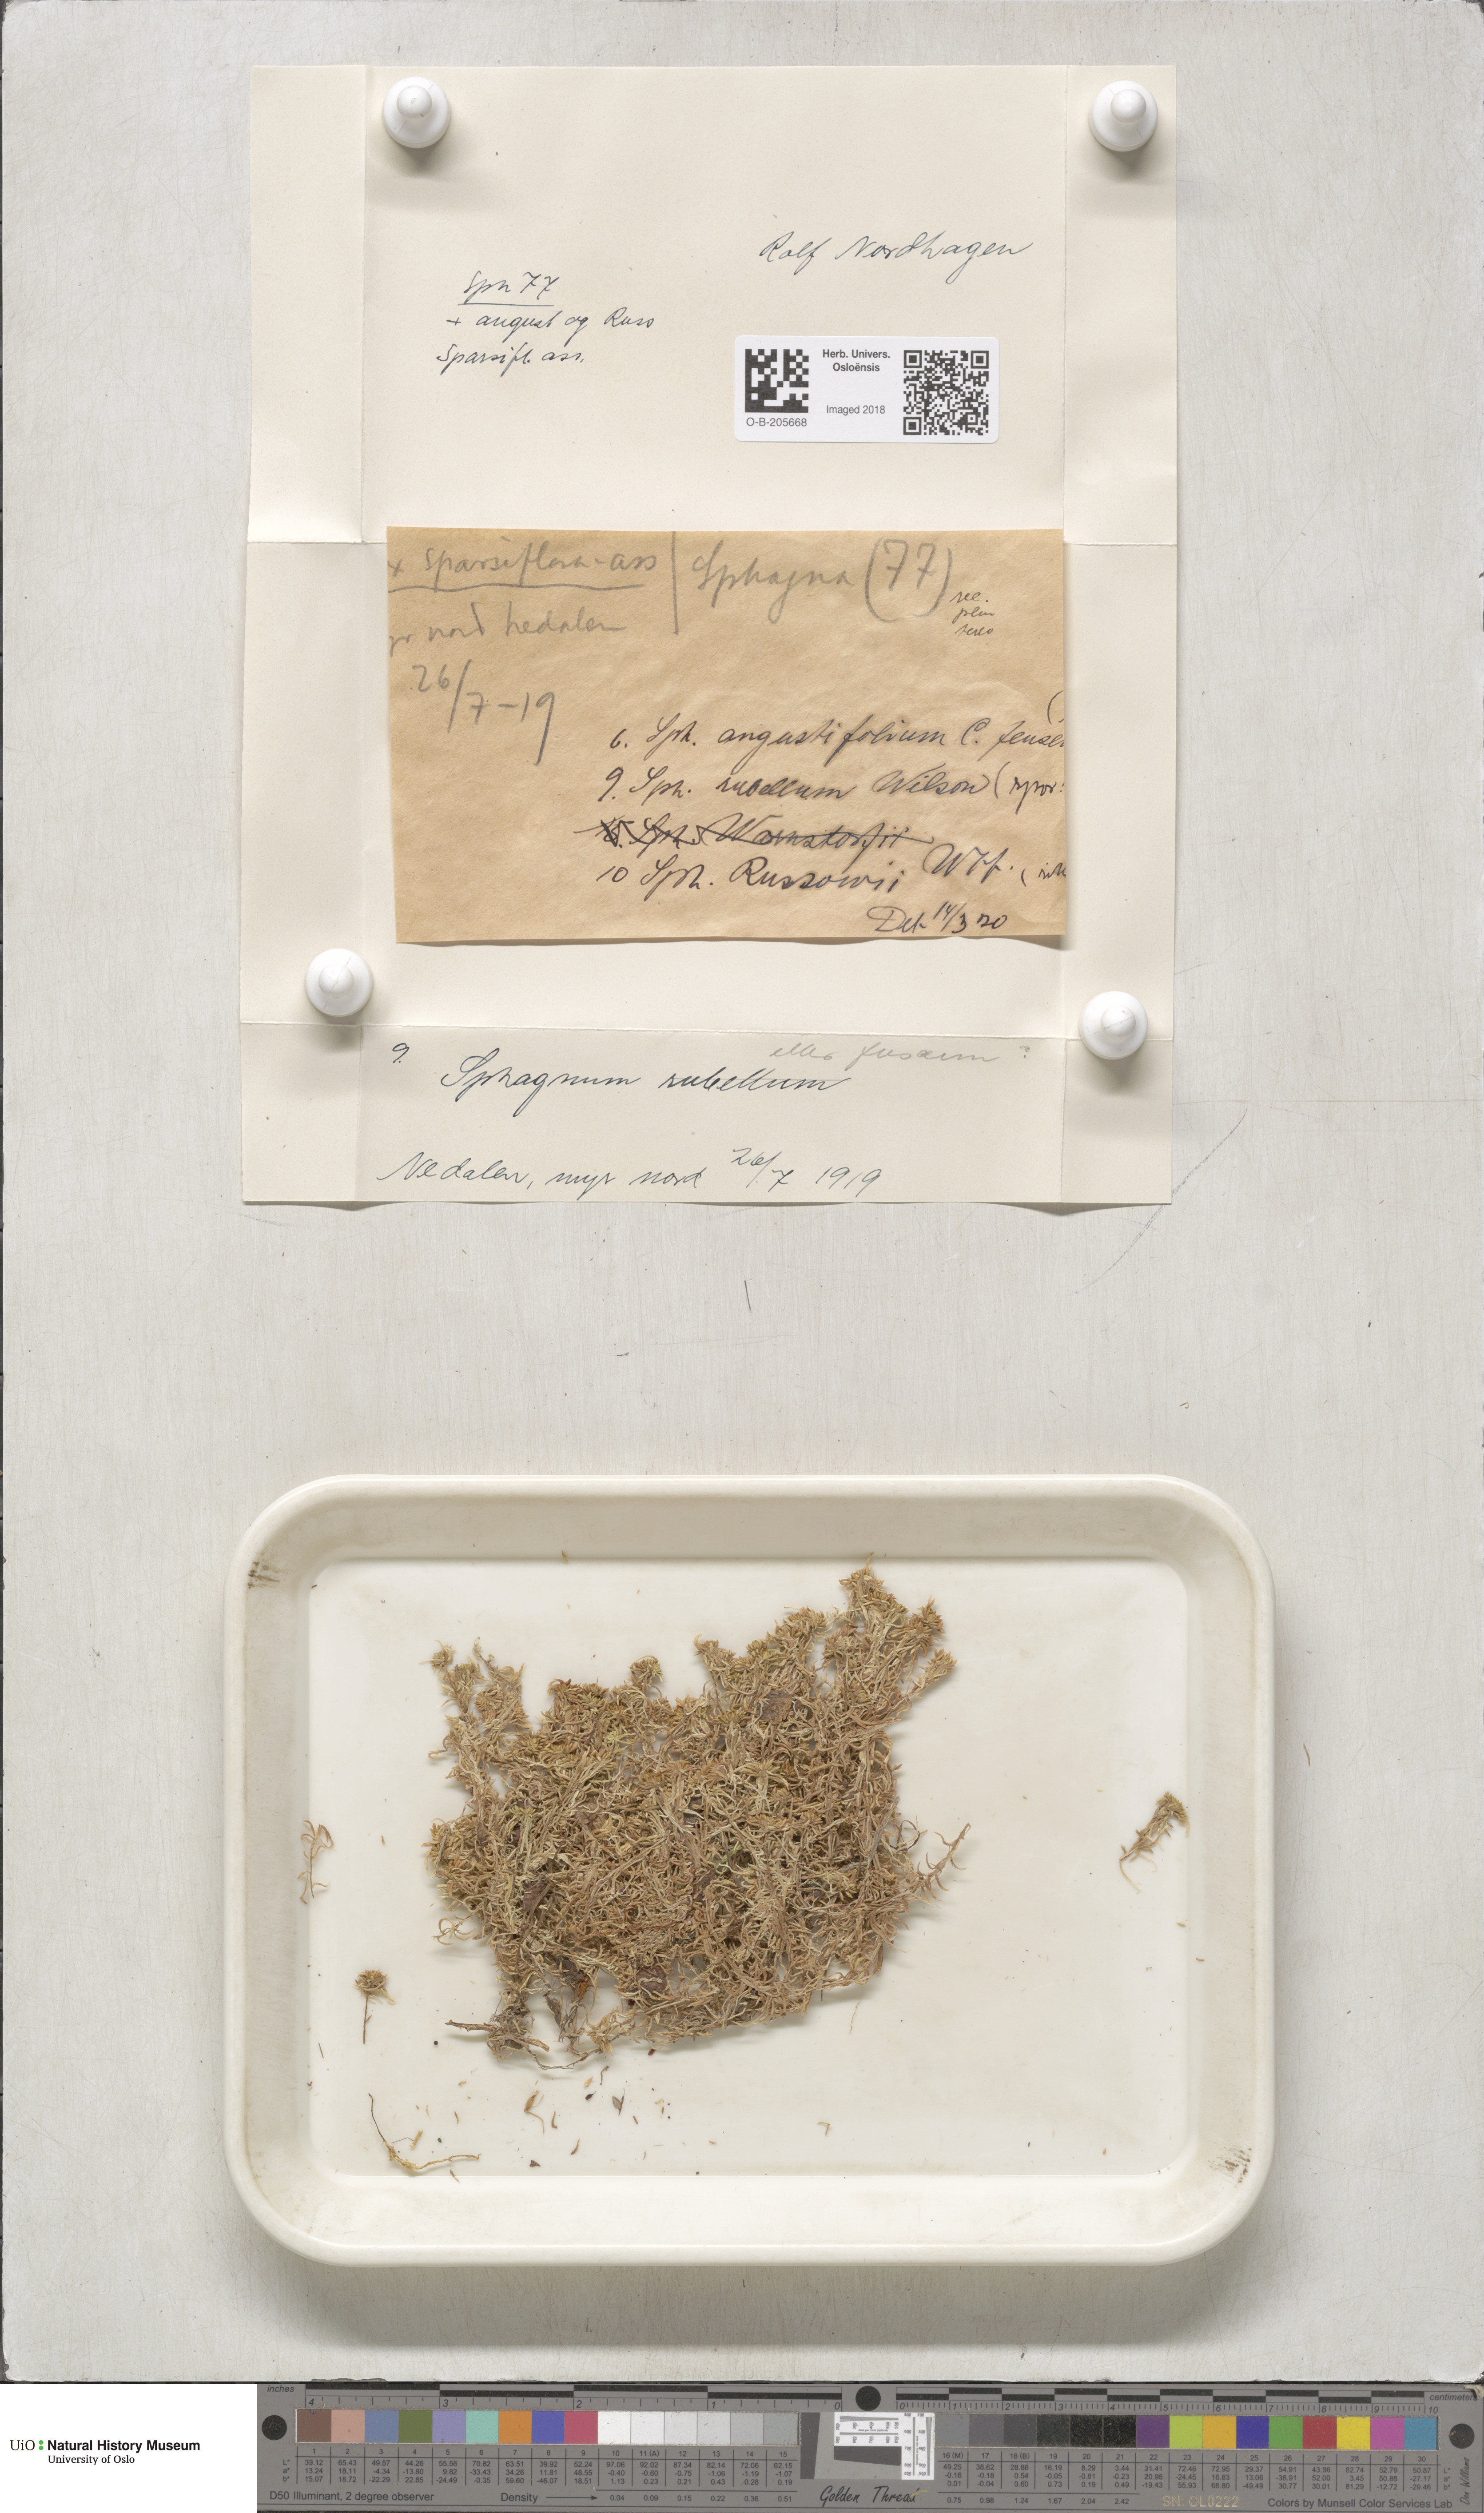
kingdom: Plantae
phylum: Bryophyta
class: Sphagnopsida
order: Sphagnales
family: Sphagnaceae
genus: Sphagnum
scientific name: Sphagnum rubellum
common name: Red peat moss
